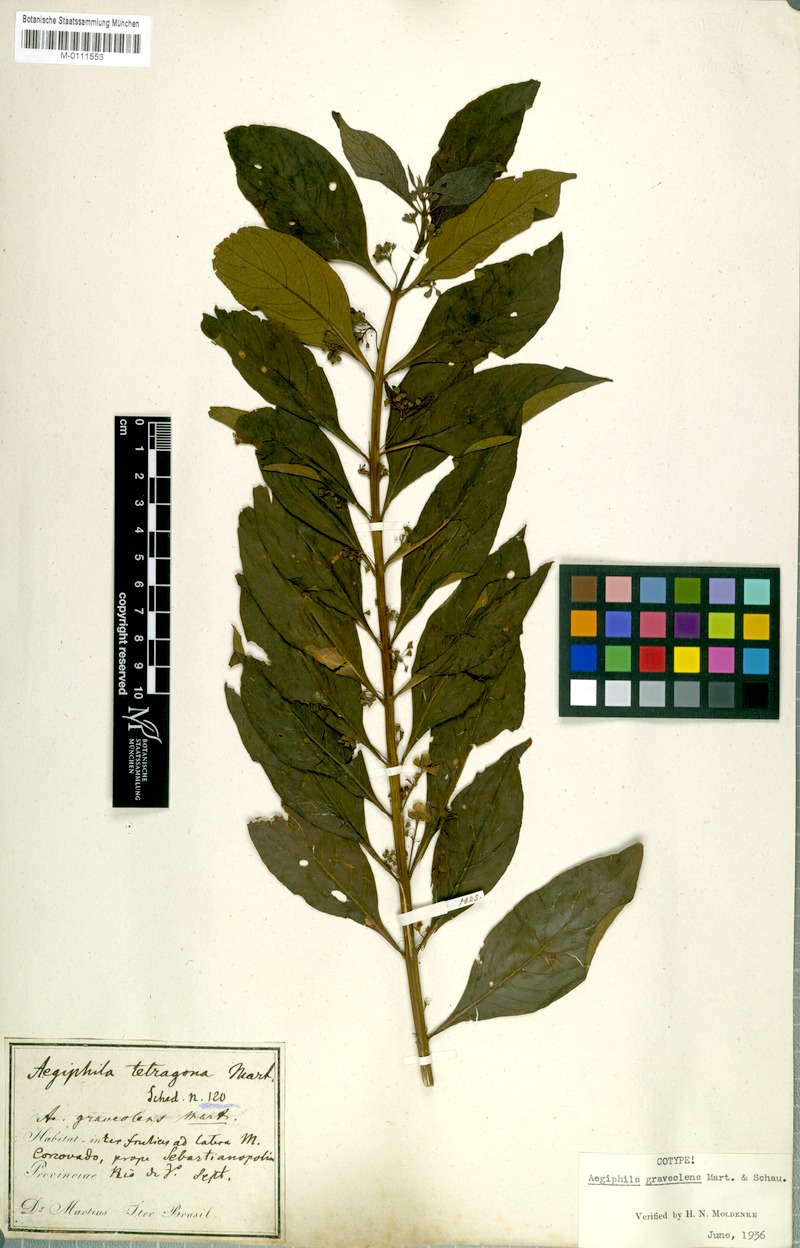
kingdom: Plantae
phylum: Tracheophyta
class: Magnoliopsida
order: Lamiales
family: Lamiaceae
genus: Aegiphila
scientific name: Aegiphila graveolens
